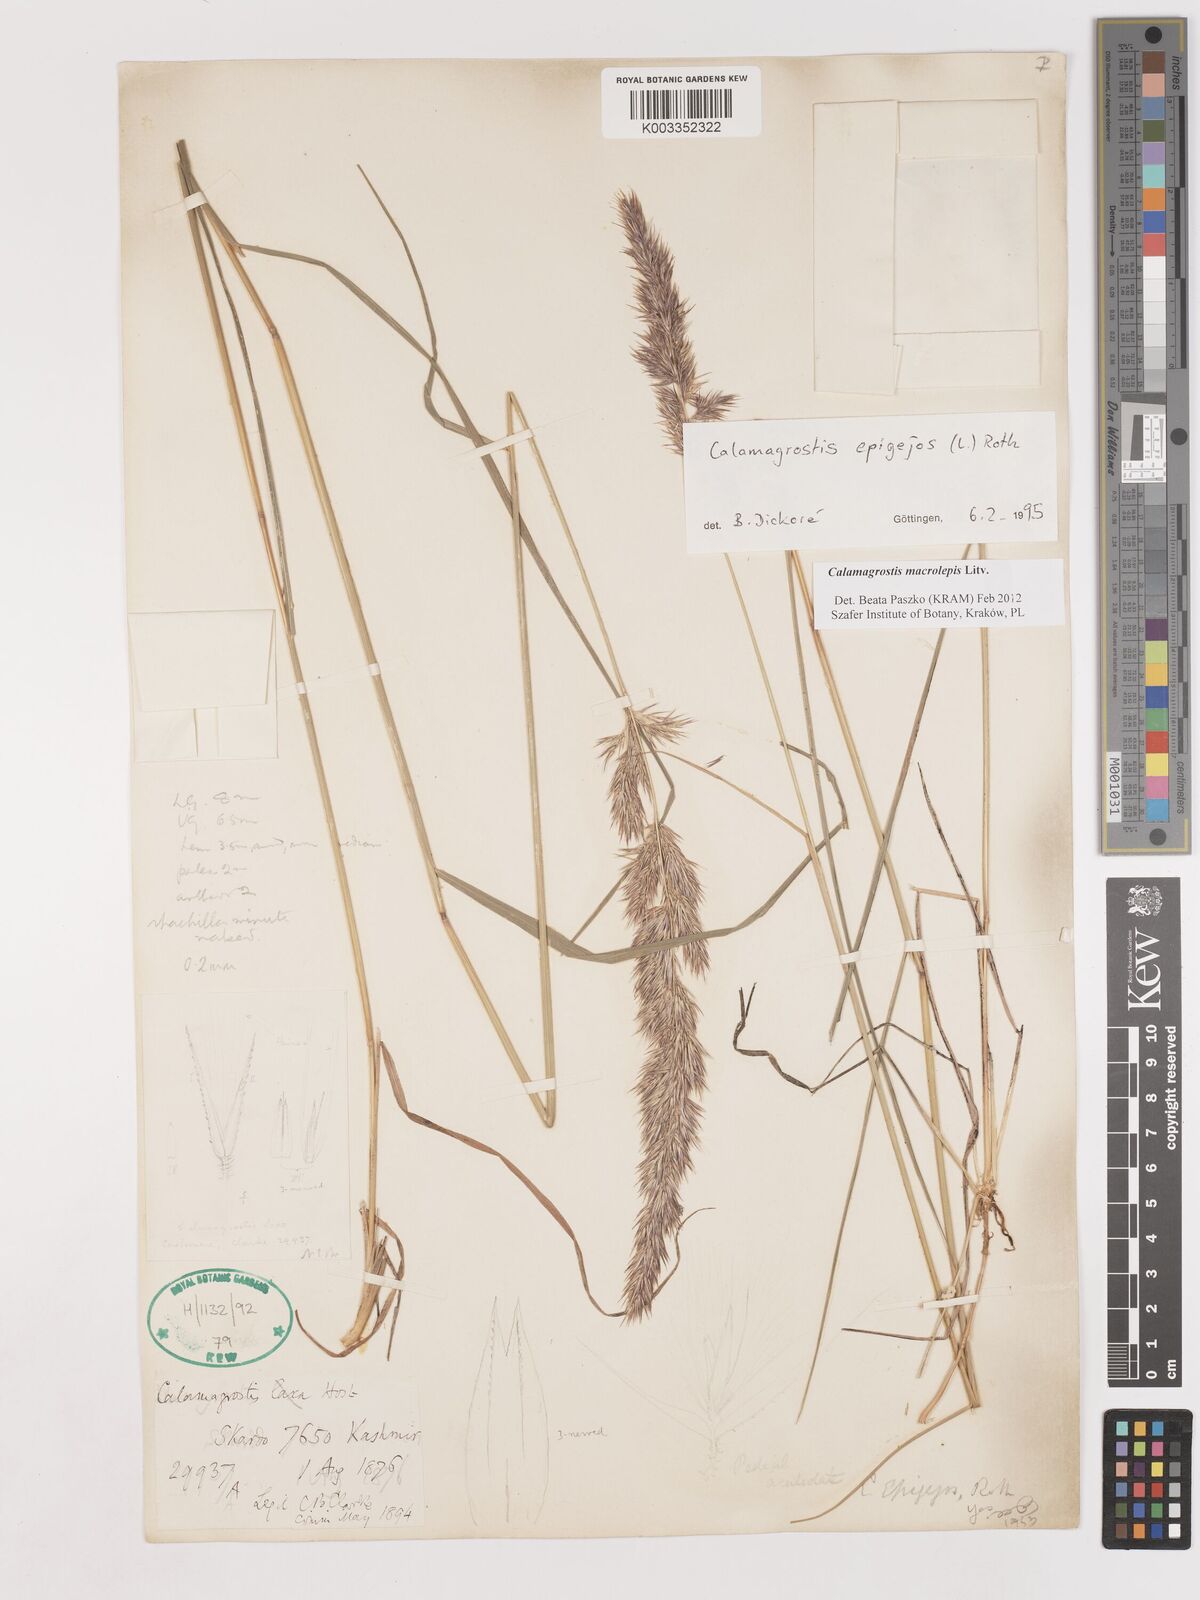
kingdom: Plantae
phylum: Tracheophyta
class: Liliopsida
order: Poales
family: Poaceae
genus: Calamagrostis
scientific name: Calamagrostis epigejos
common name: Wood small-reed
